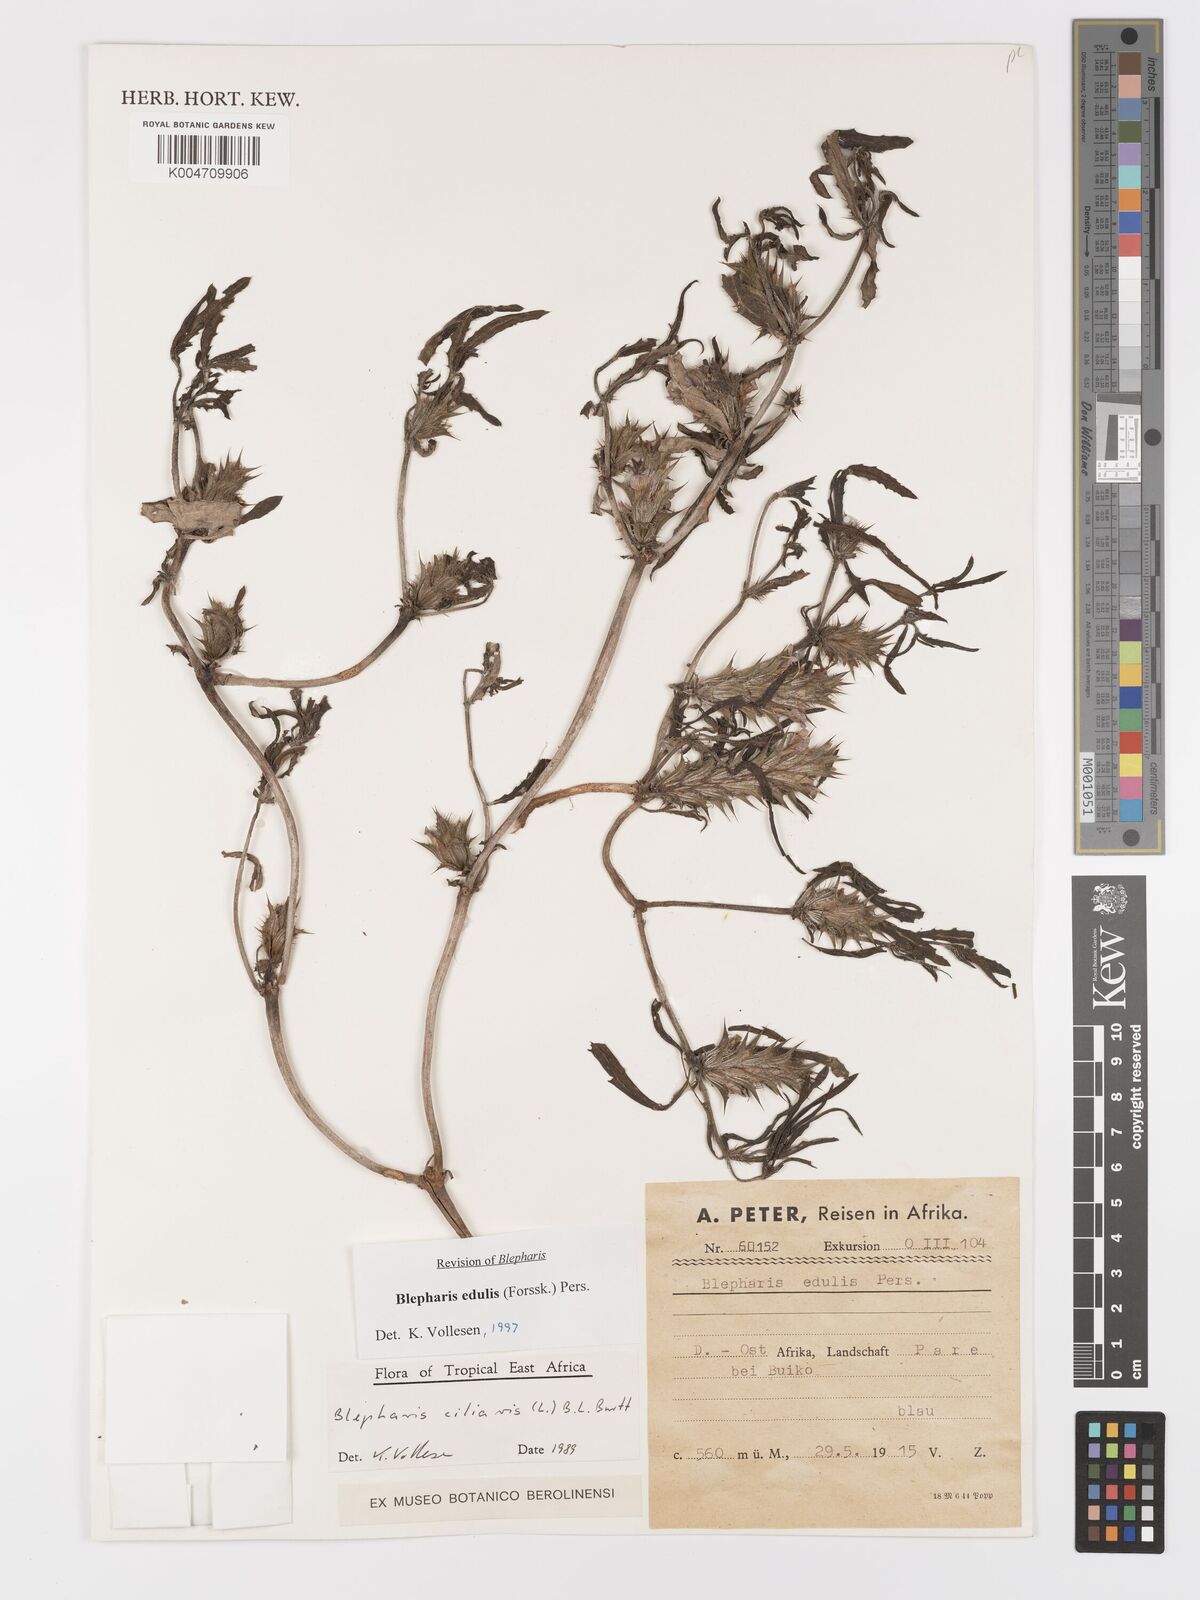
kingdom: Plantae
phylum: Tracheophyta
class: Magnoliopsida
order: Lamiales
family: Acanthaceae
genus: Blepharis
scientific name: Blepharis edulis
